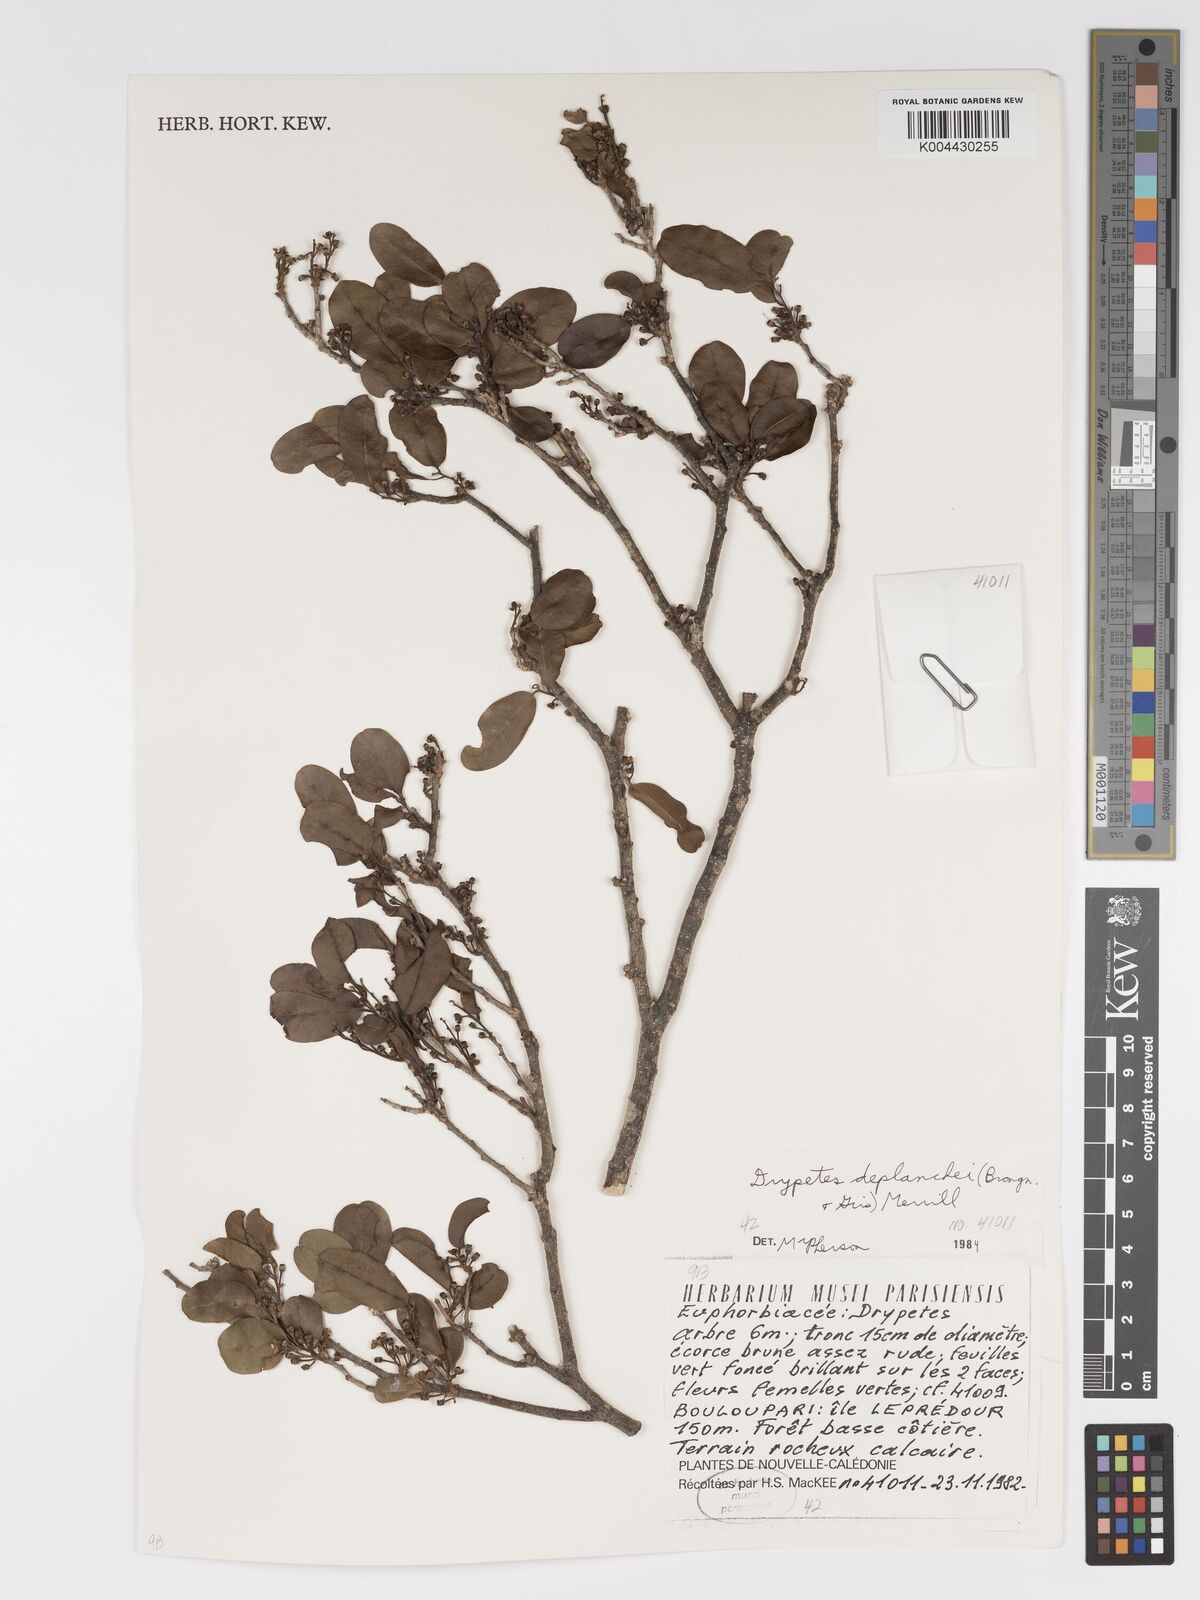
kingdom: Plantae
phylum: Tracheophyta
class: Magnoliopsida
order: Malpighiales
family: Putranjivaceae
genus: Drypetes
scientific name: Drypetes deplanchei
